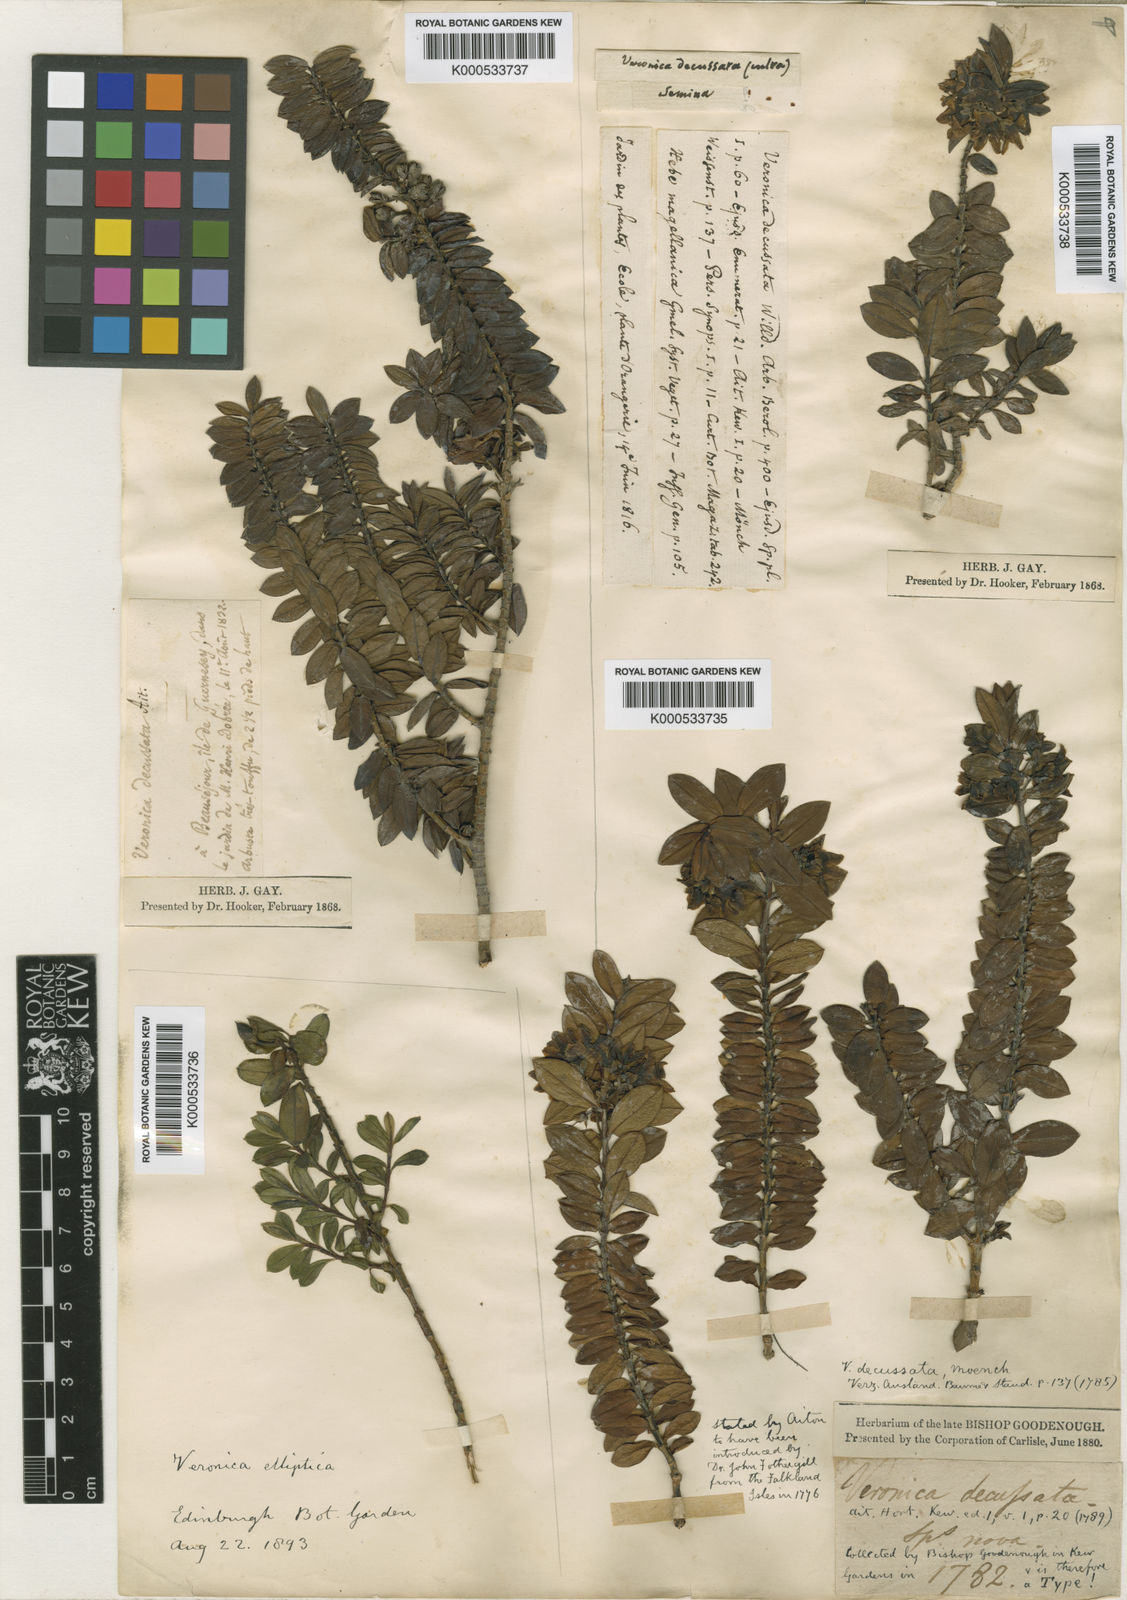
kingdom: Plantae
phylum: Tracheophyta
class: Magnoliopsida
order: Lamiales
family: Plantaginaceae
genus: Veronica
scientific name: Veronica elliptica
